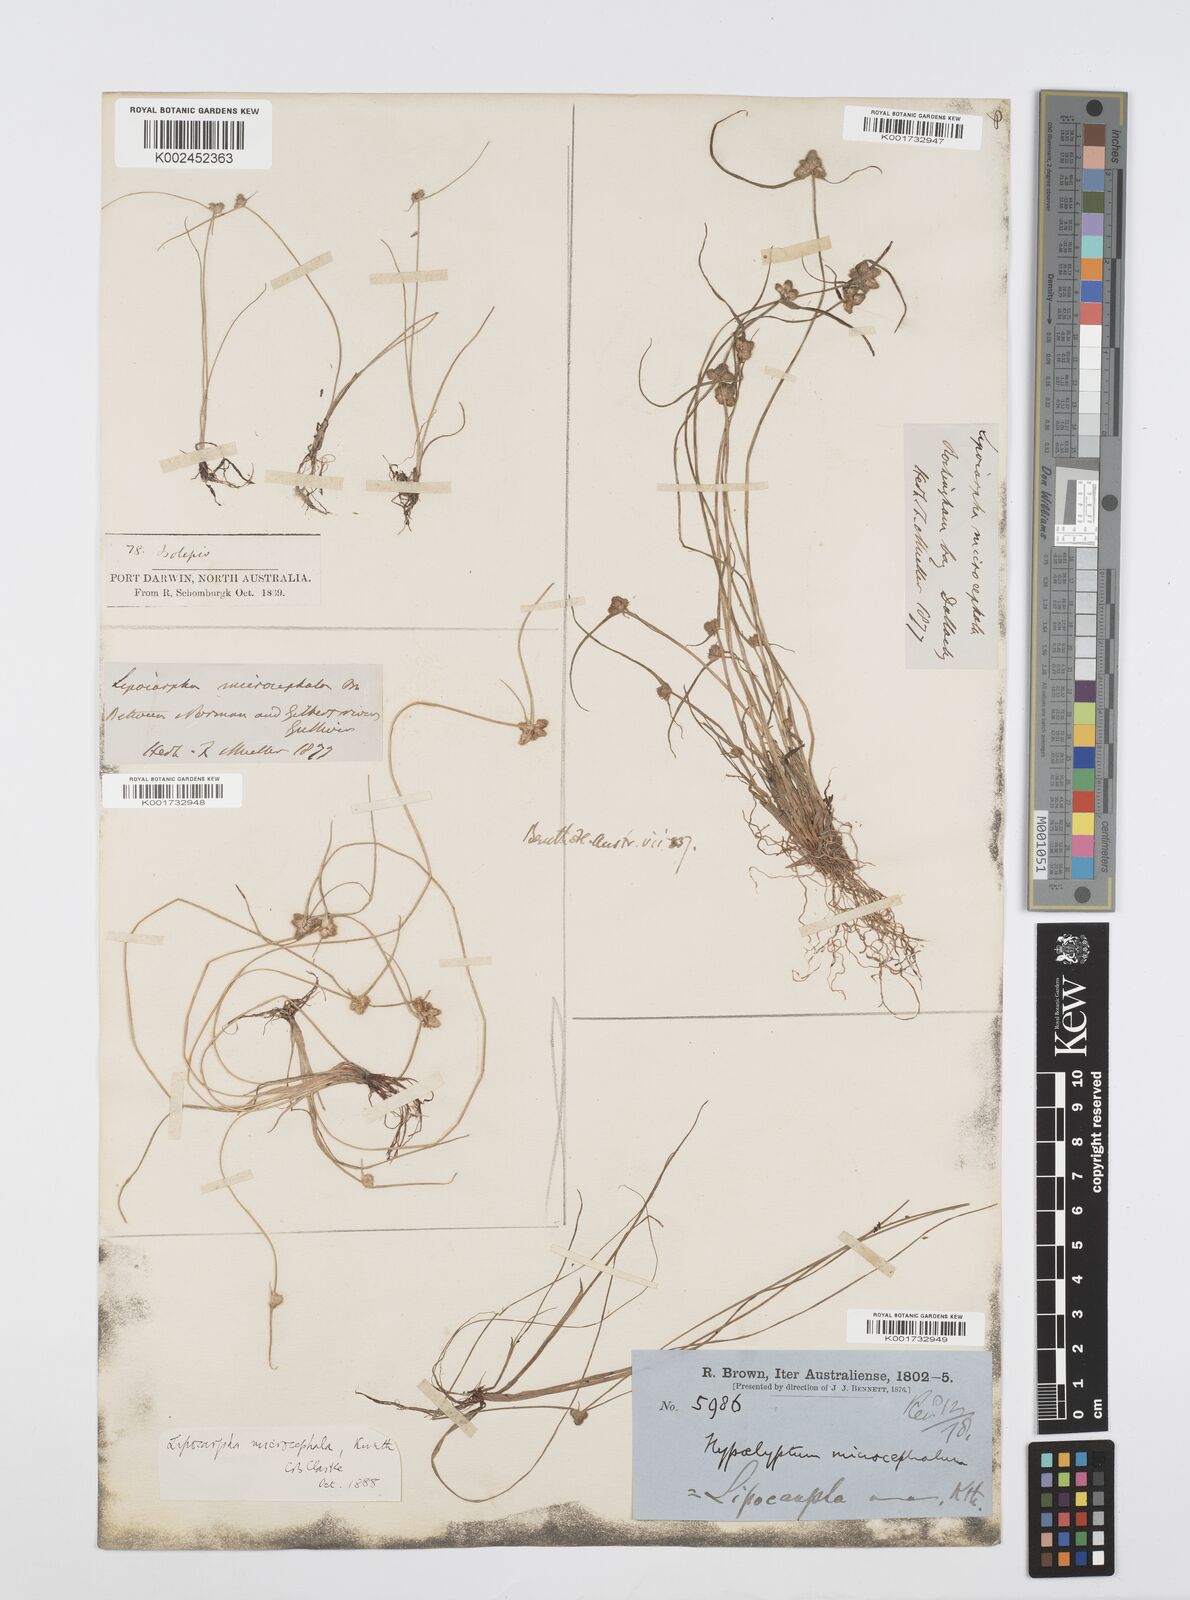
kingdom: Plantae
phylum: Tracheophyta
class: Liliopsida
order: Poales
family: Cyperaceae
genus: Cyperus
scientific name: Cyperus microcephalus
